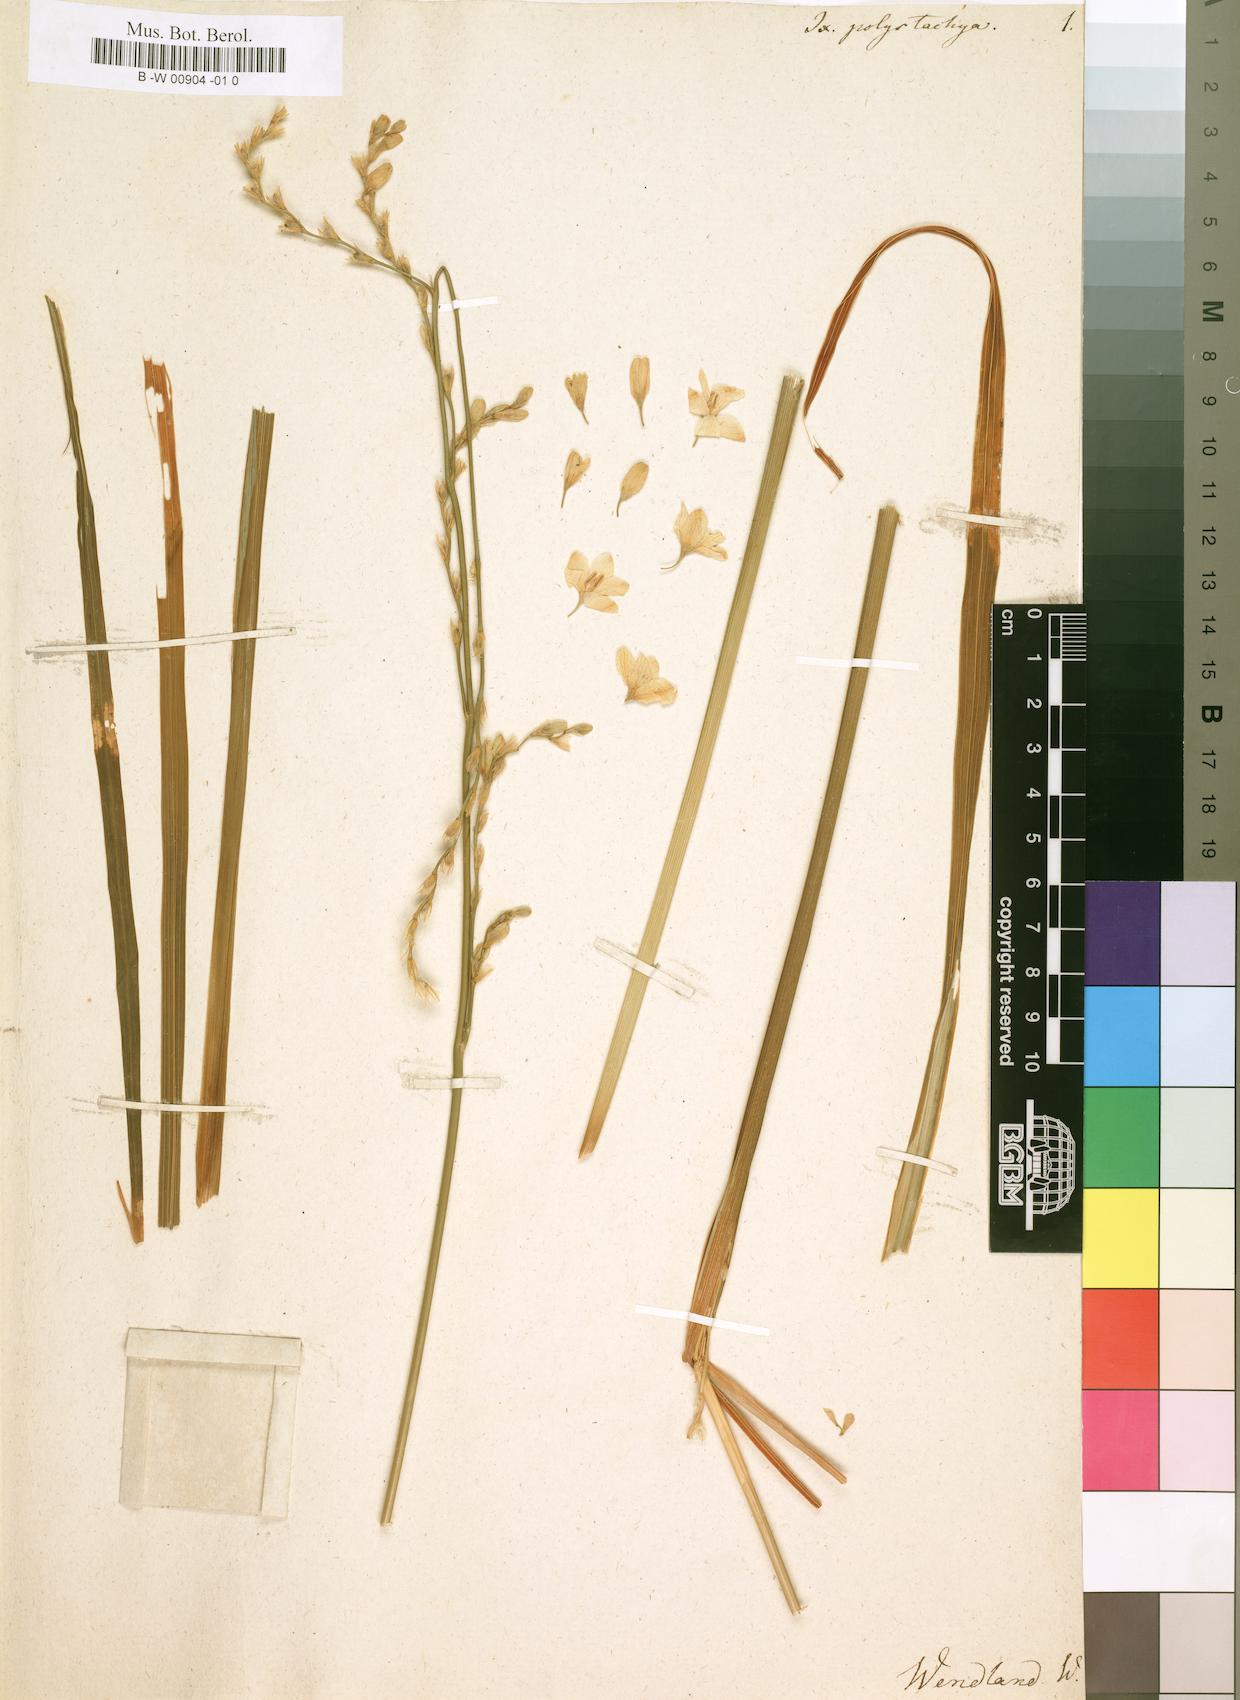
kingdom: Plantae
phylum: Tracheophyta
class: Liliopsida
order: Asparagales
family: Iridaceae
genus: Ixia
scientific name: Ixia polystachya
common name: White-and-yellow-flower cornlily
